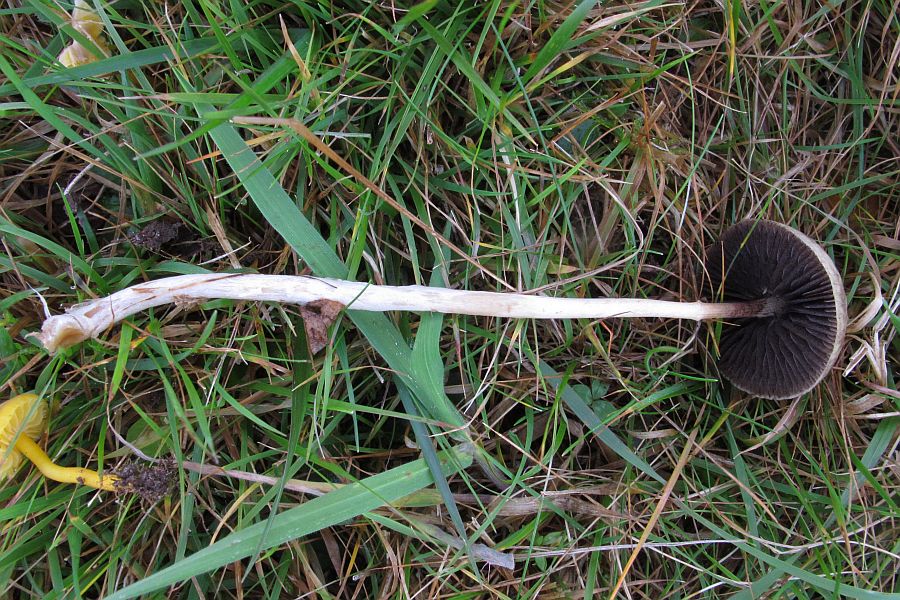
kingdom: Fungi
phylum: Basidiomycota
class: Agaricomycetes
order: Agaricales
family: Bolbitiaceae
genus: Panaeolus
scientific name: Panaeolus acuminatus
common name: høj glanshat
